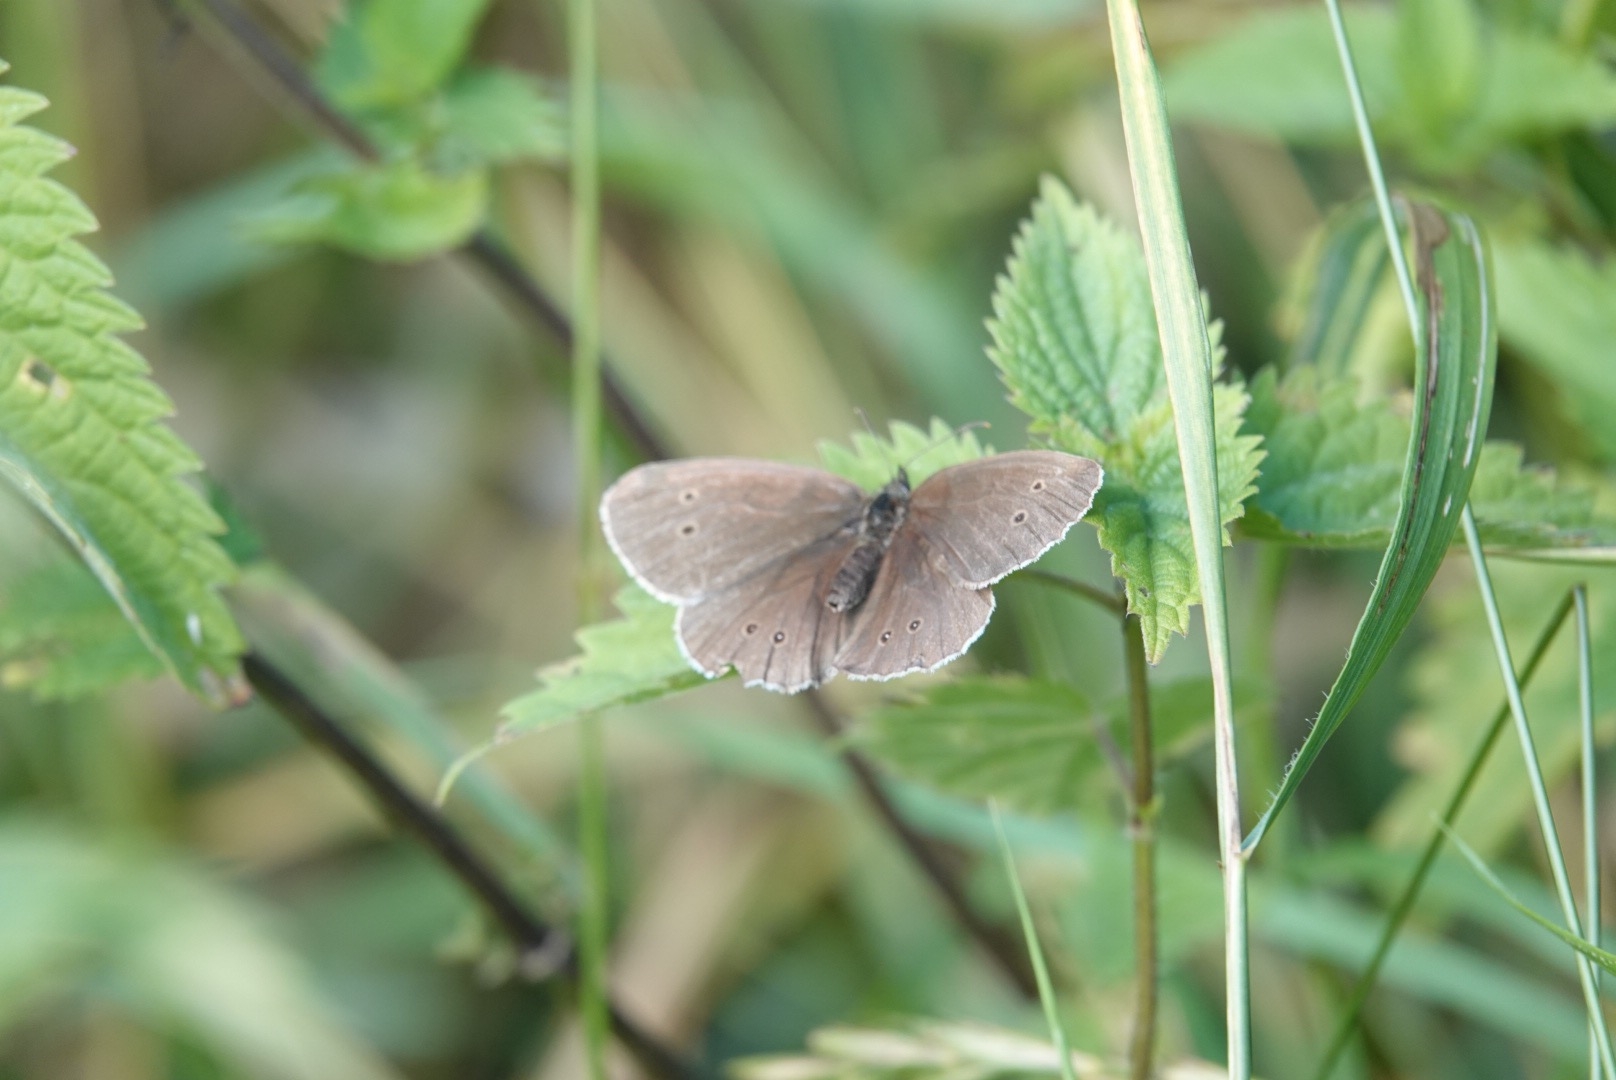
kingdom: Animalia
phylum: Arthropoda
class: Insecta
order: Lepidoptera
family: Nymphalidae
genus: Aphantopus
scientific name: Aphantopus hyperantus
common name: Engrandøje
